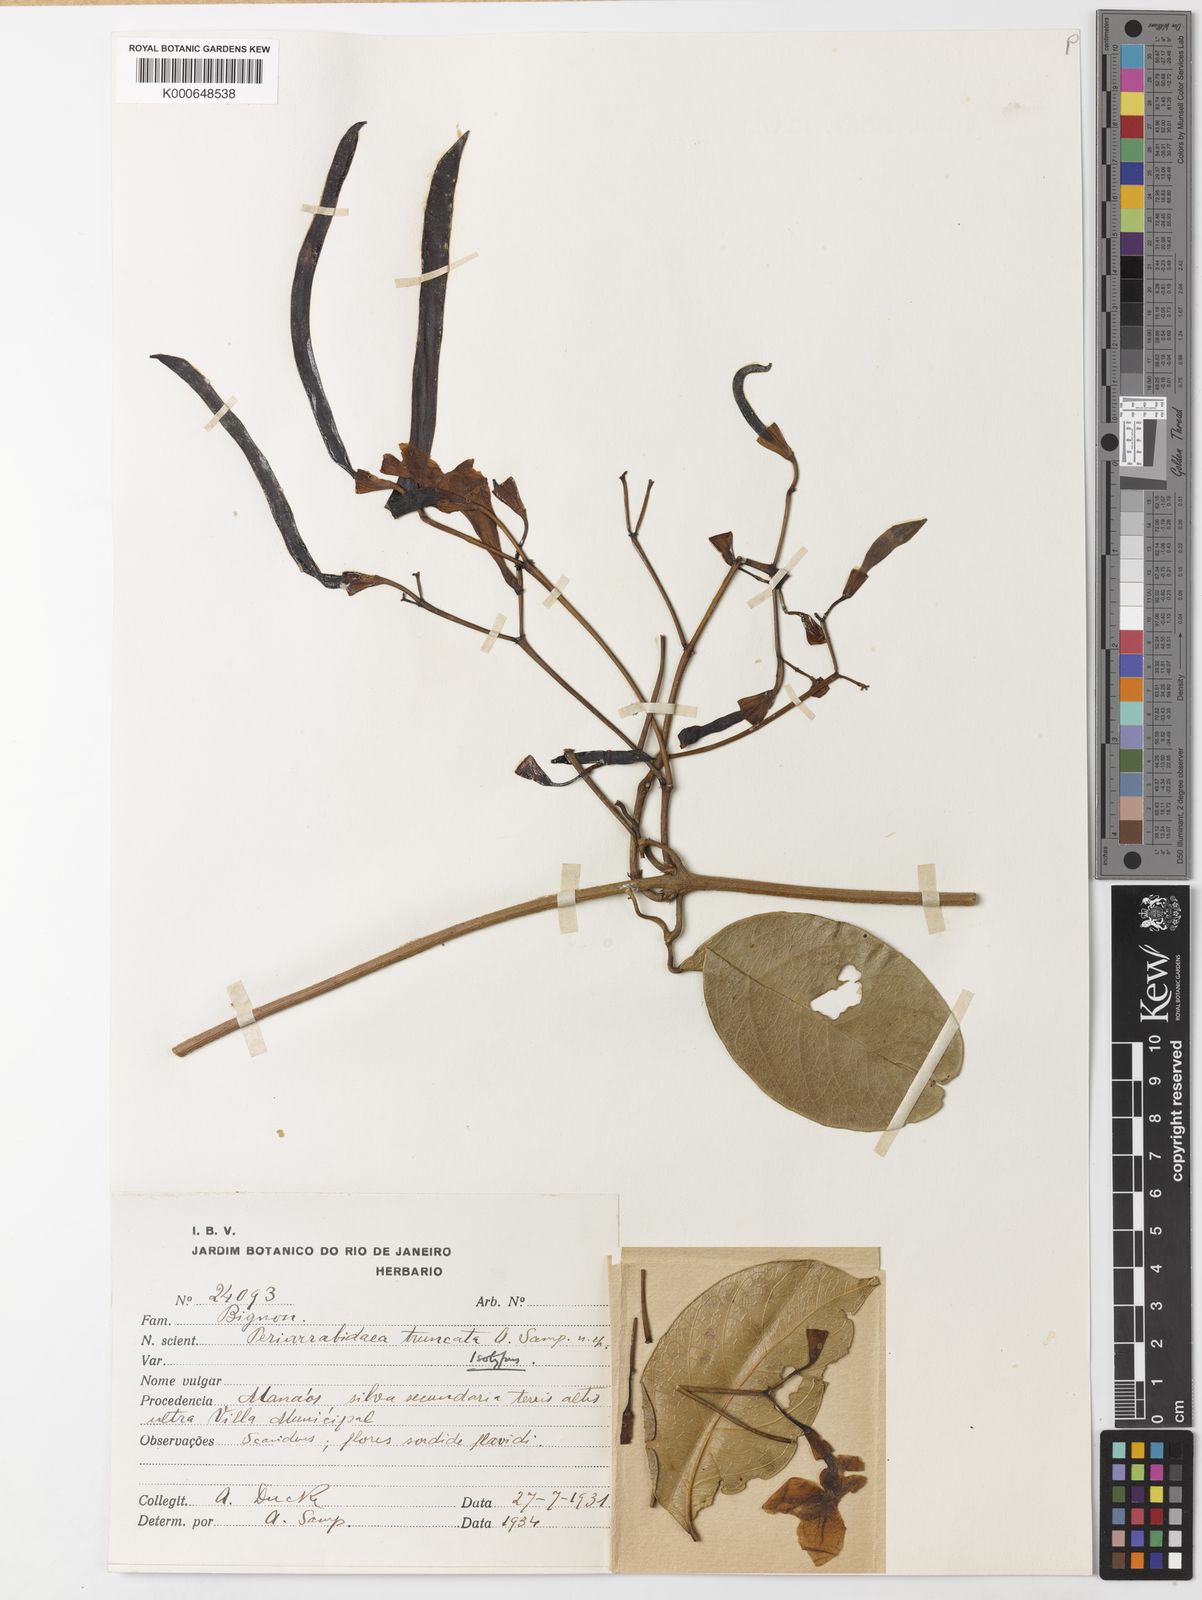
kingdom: Plantae
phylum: Tracheophyta
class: Magnoliopsida
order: Lamiales
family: Bignoniaceae
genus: Tanaecium
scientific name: Tanaecium truncatum
